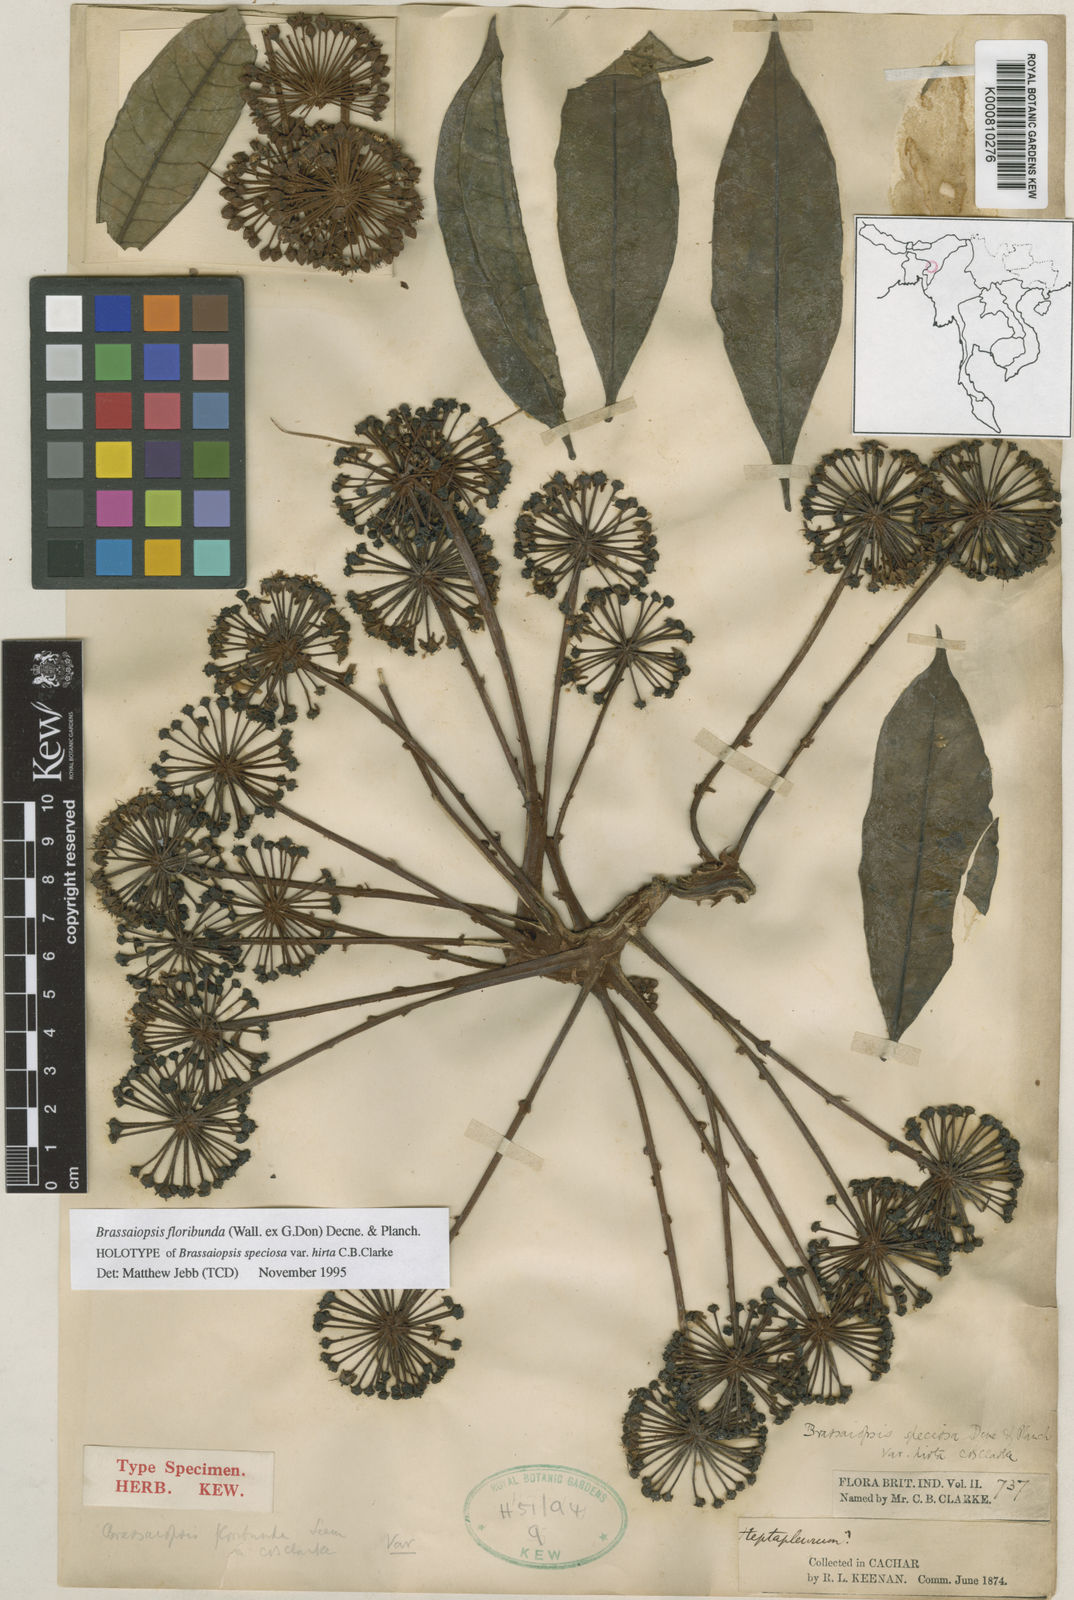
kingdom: Plantae
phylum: Tracheophyta
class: Magnoliopsida
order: Apiales
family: Araliaceae
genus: Brassaiopsis
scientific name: Brassaiopsis glomerulata
